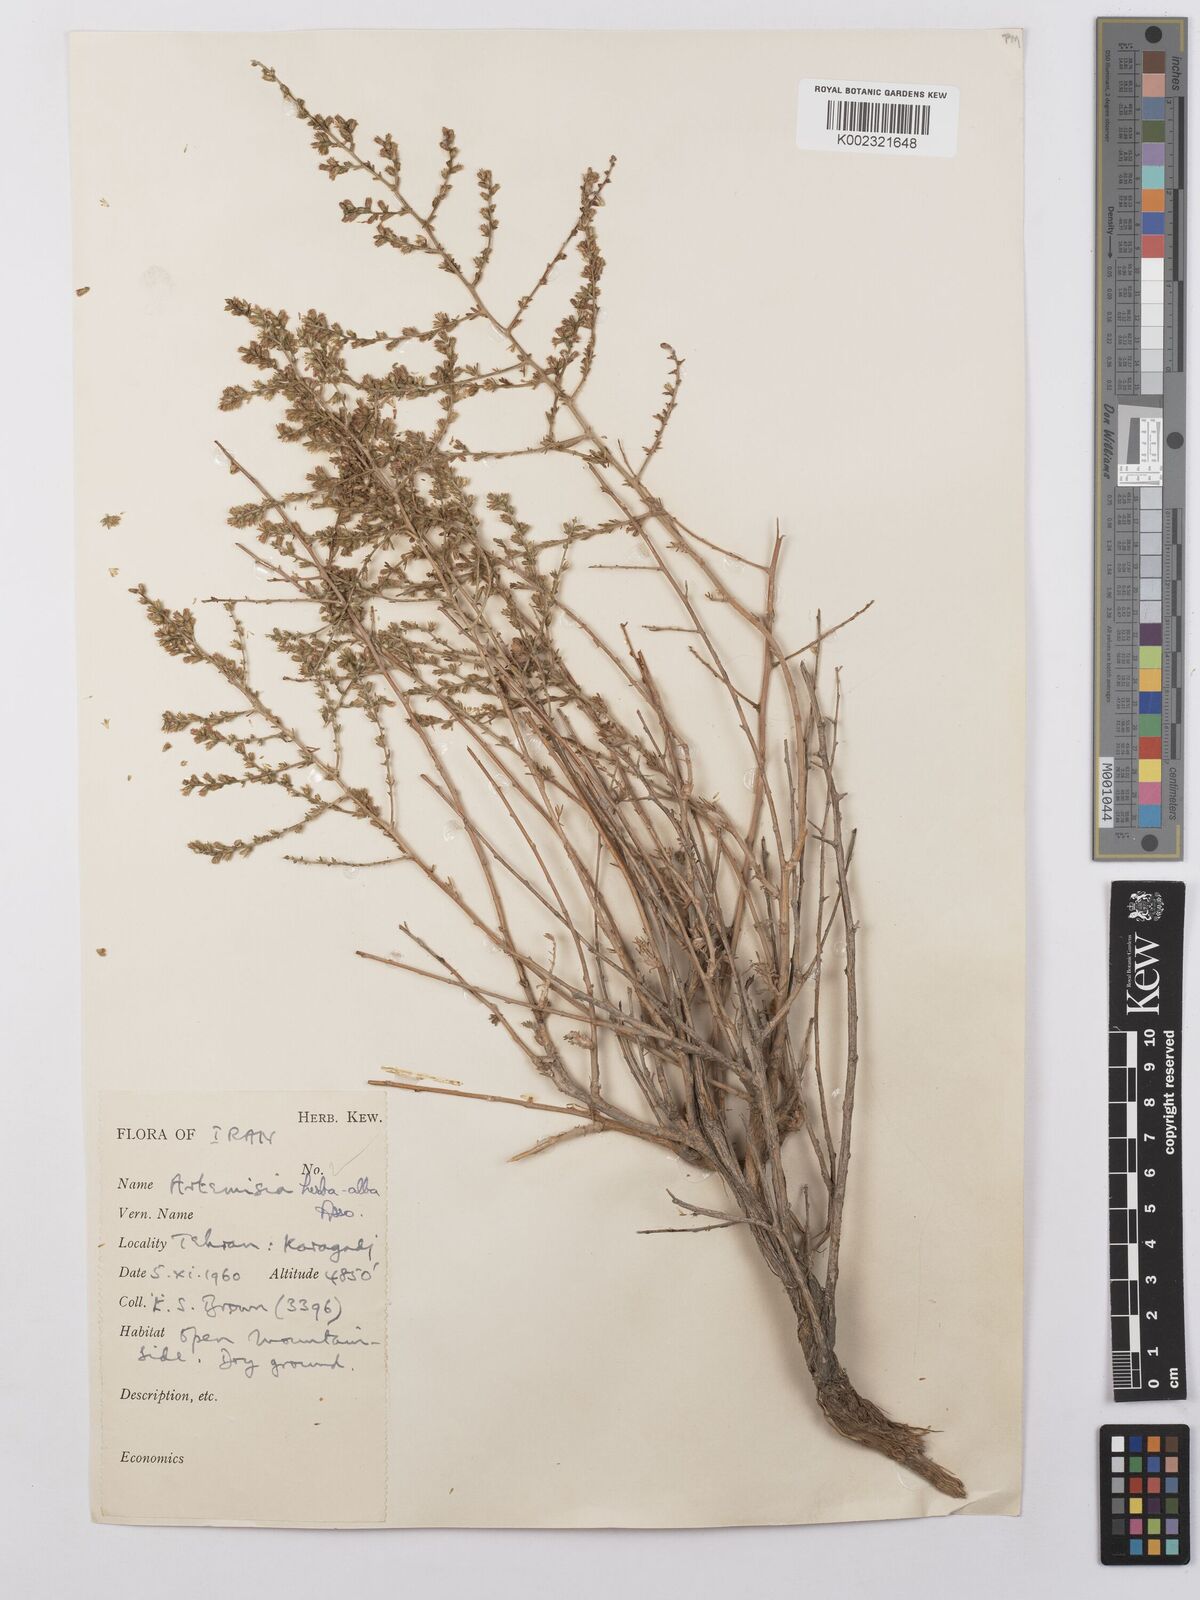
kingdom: Plantae
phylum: Tracheophyta
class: Magnoliopsida
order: Asterales
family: Asteraceae
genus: Artemisia
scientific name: Artemisia herba-alba
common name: White wormwood
